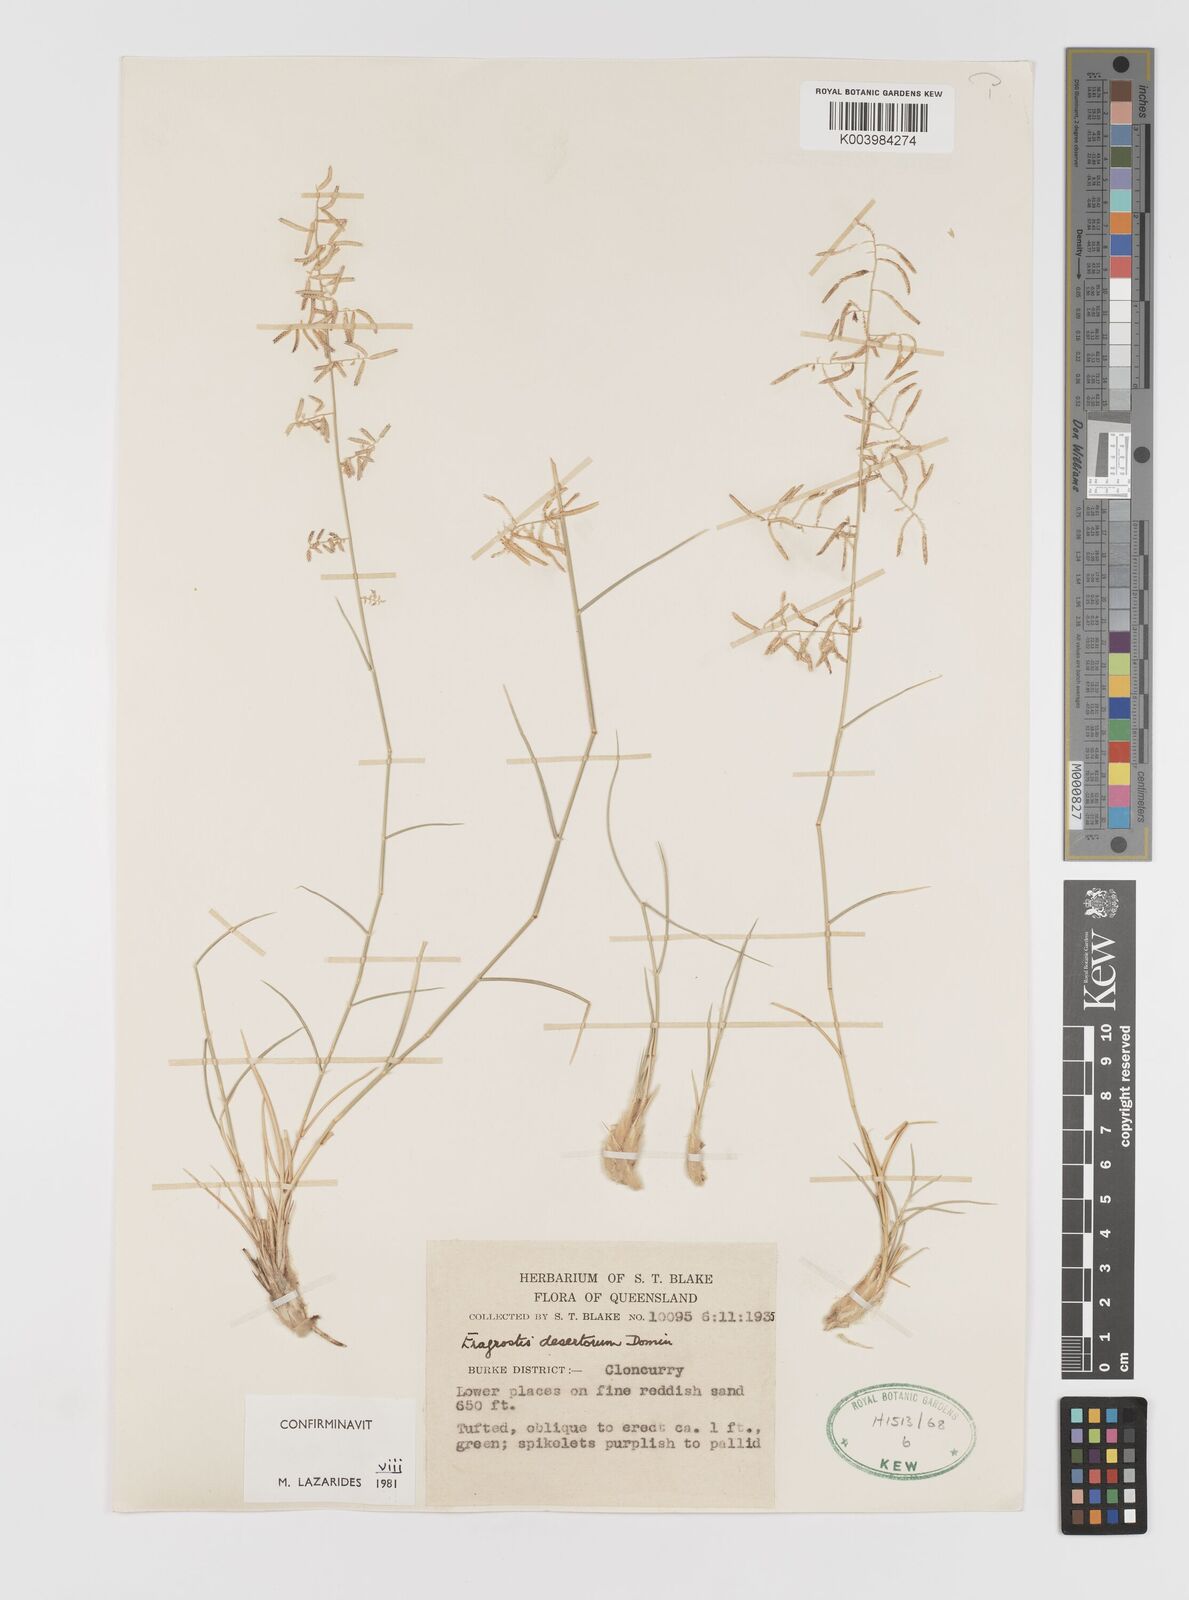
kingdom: Plantae
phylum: Tracheophyta
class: Liliopsida
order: Poales
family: Poaceae
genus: Eragrostis
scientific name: Eragrostis desertorum
